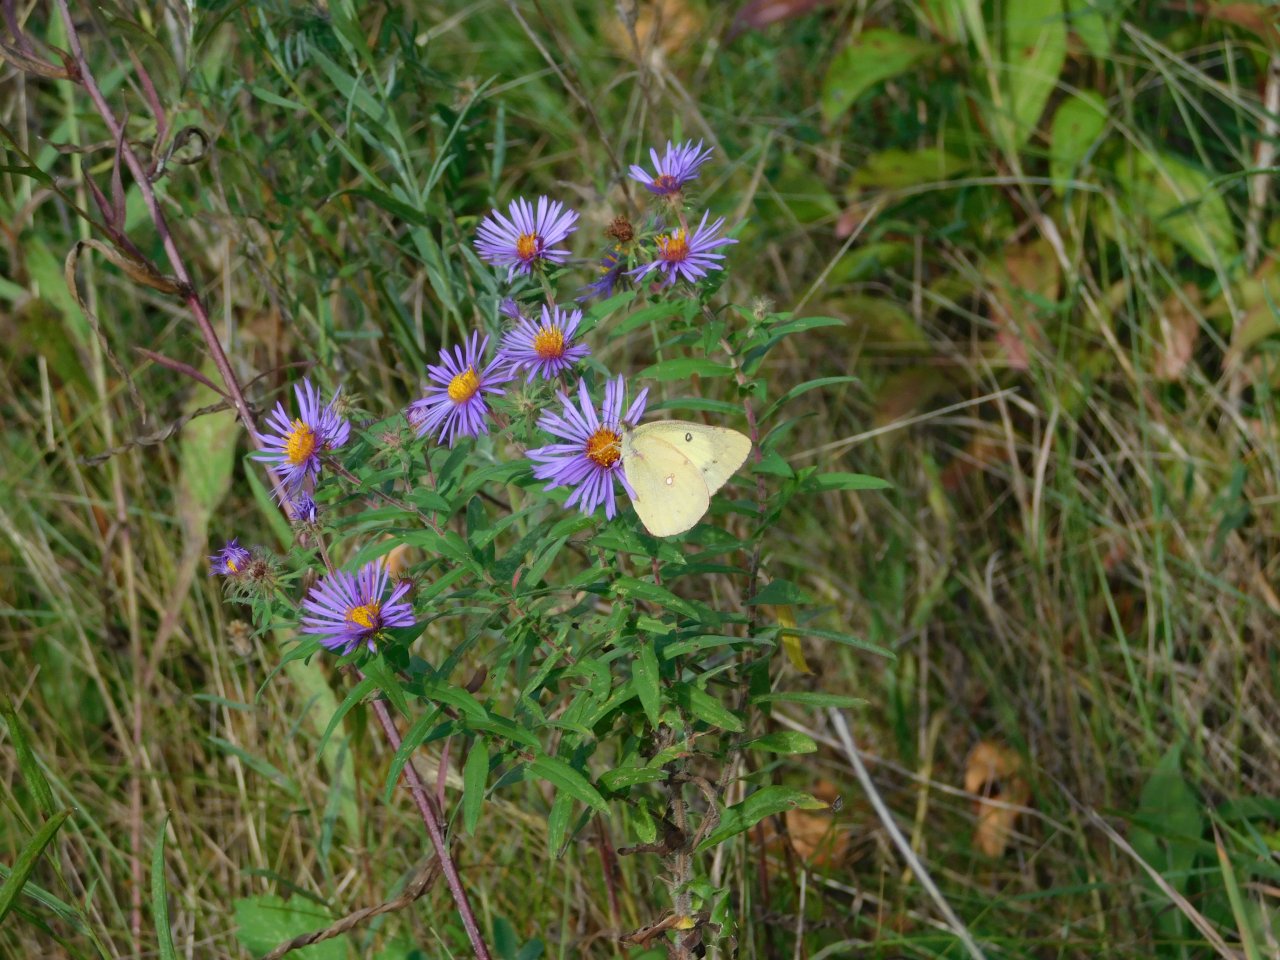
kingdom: Animalia
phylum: Arthropoda
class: Insecta
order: Lepidoptera
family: Pieridae
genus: Colias
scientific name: Colias philodice
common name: Clouded Sulphur
